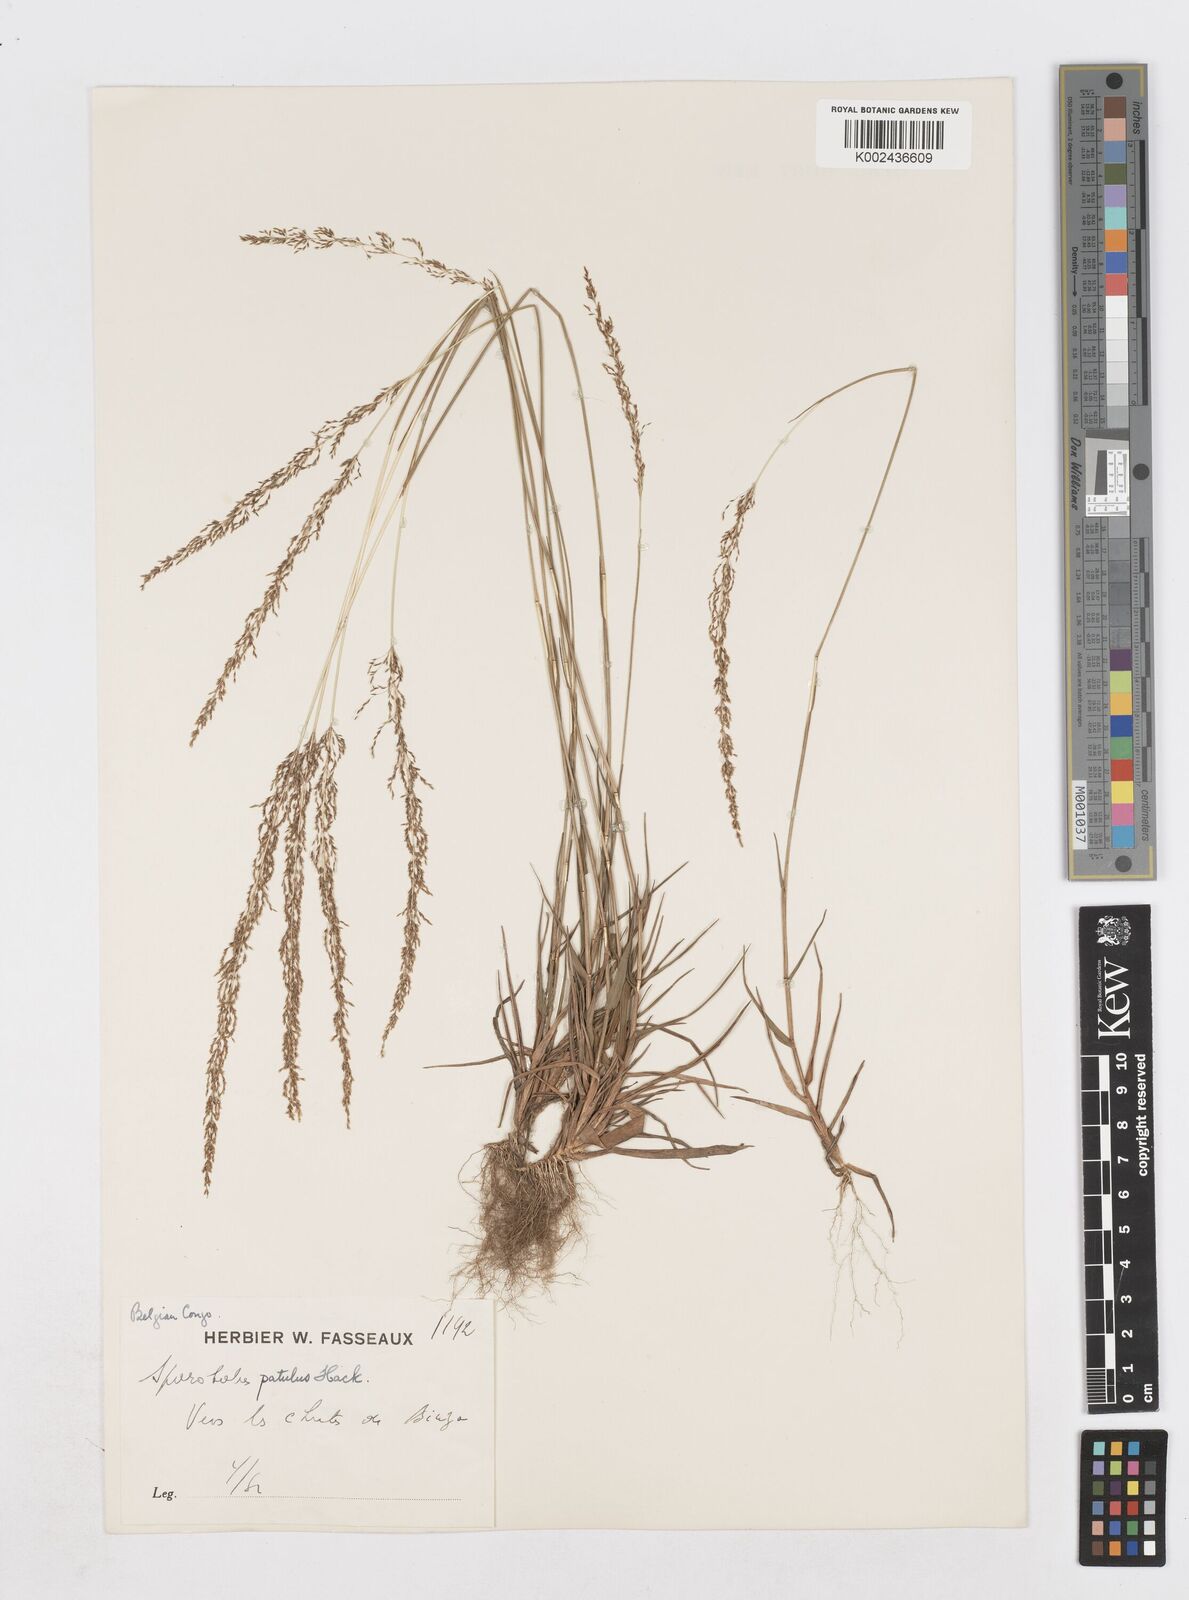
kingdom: Plantae
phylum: Tracheophyta
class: Liliopsida
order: Poales
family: Poaceae
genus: Sporobolus
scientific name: Sporobolus paniculatus
